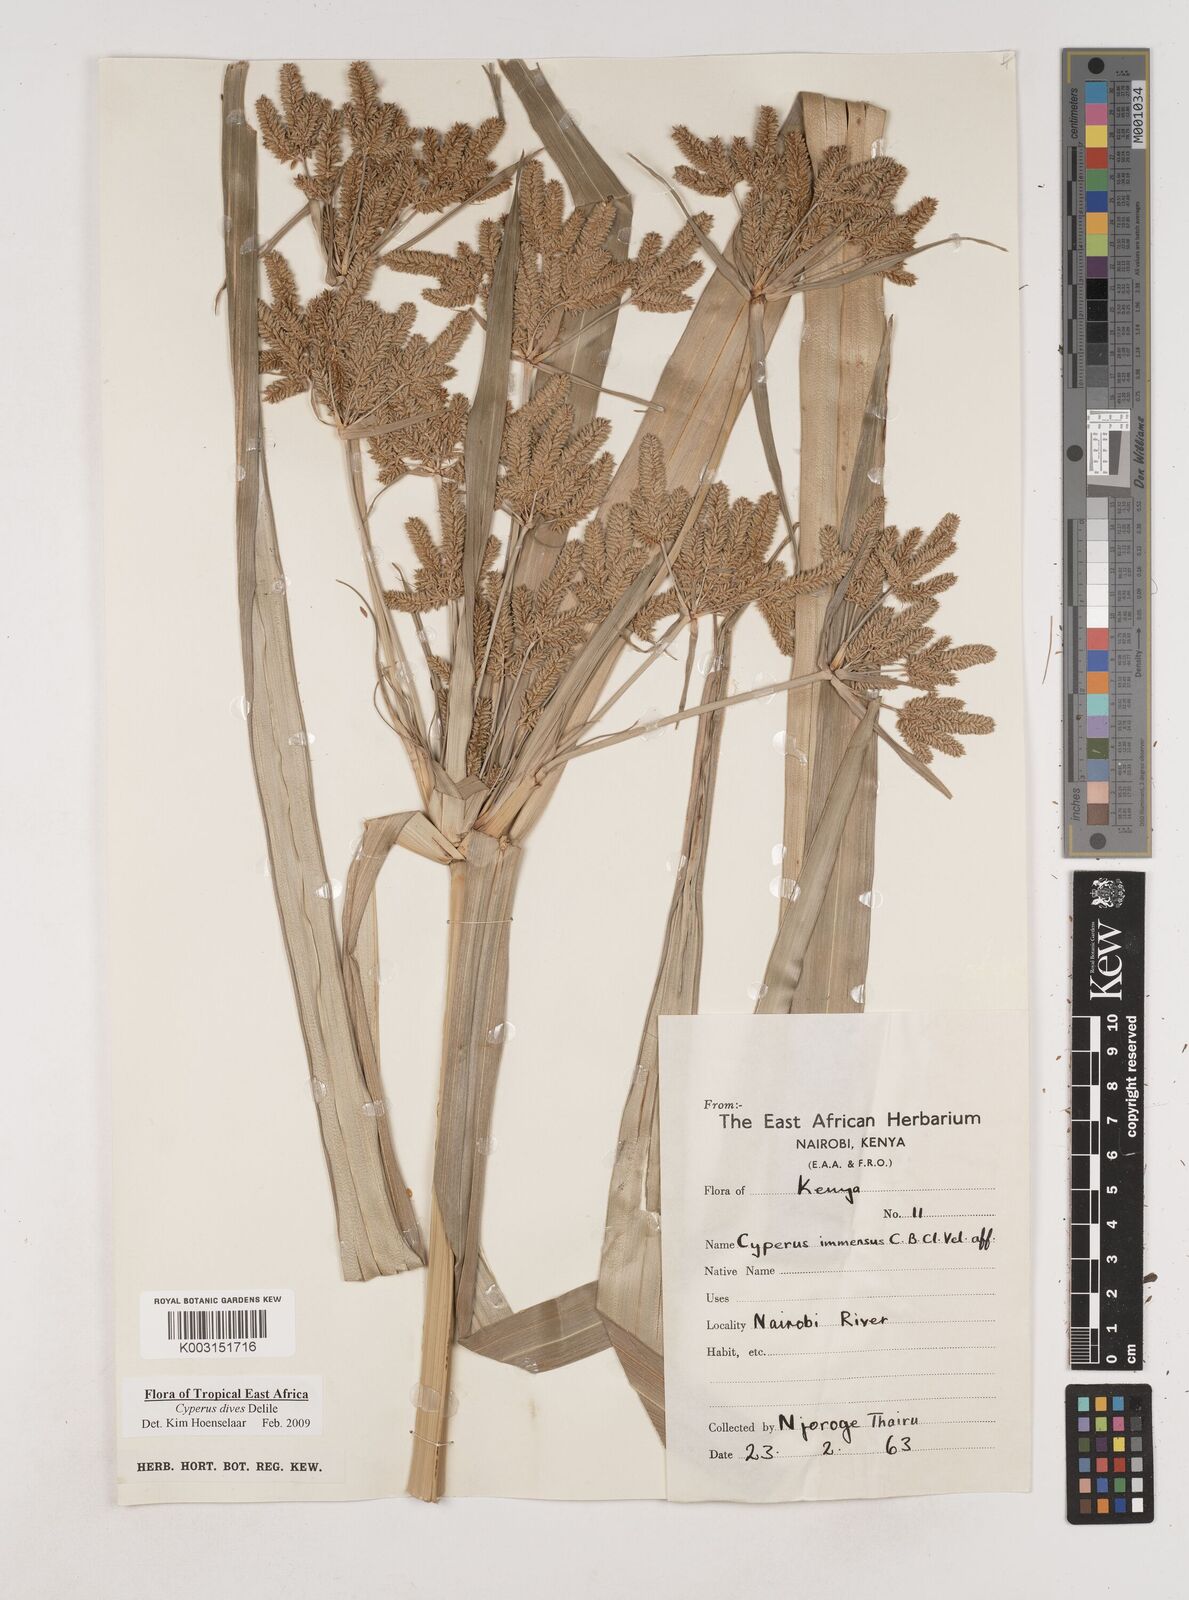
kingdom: Plantae
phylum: Tracheophyta
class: Liliopsida
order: Poales
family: Cyperaceae
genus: Cyperus
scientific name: Cyperus dives
